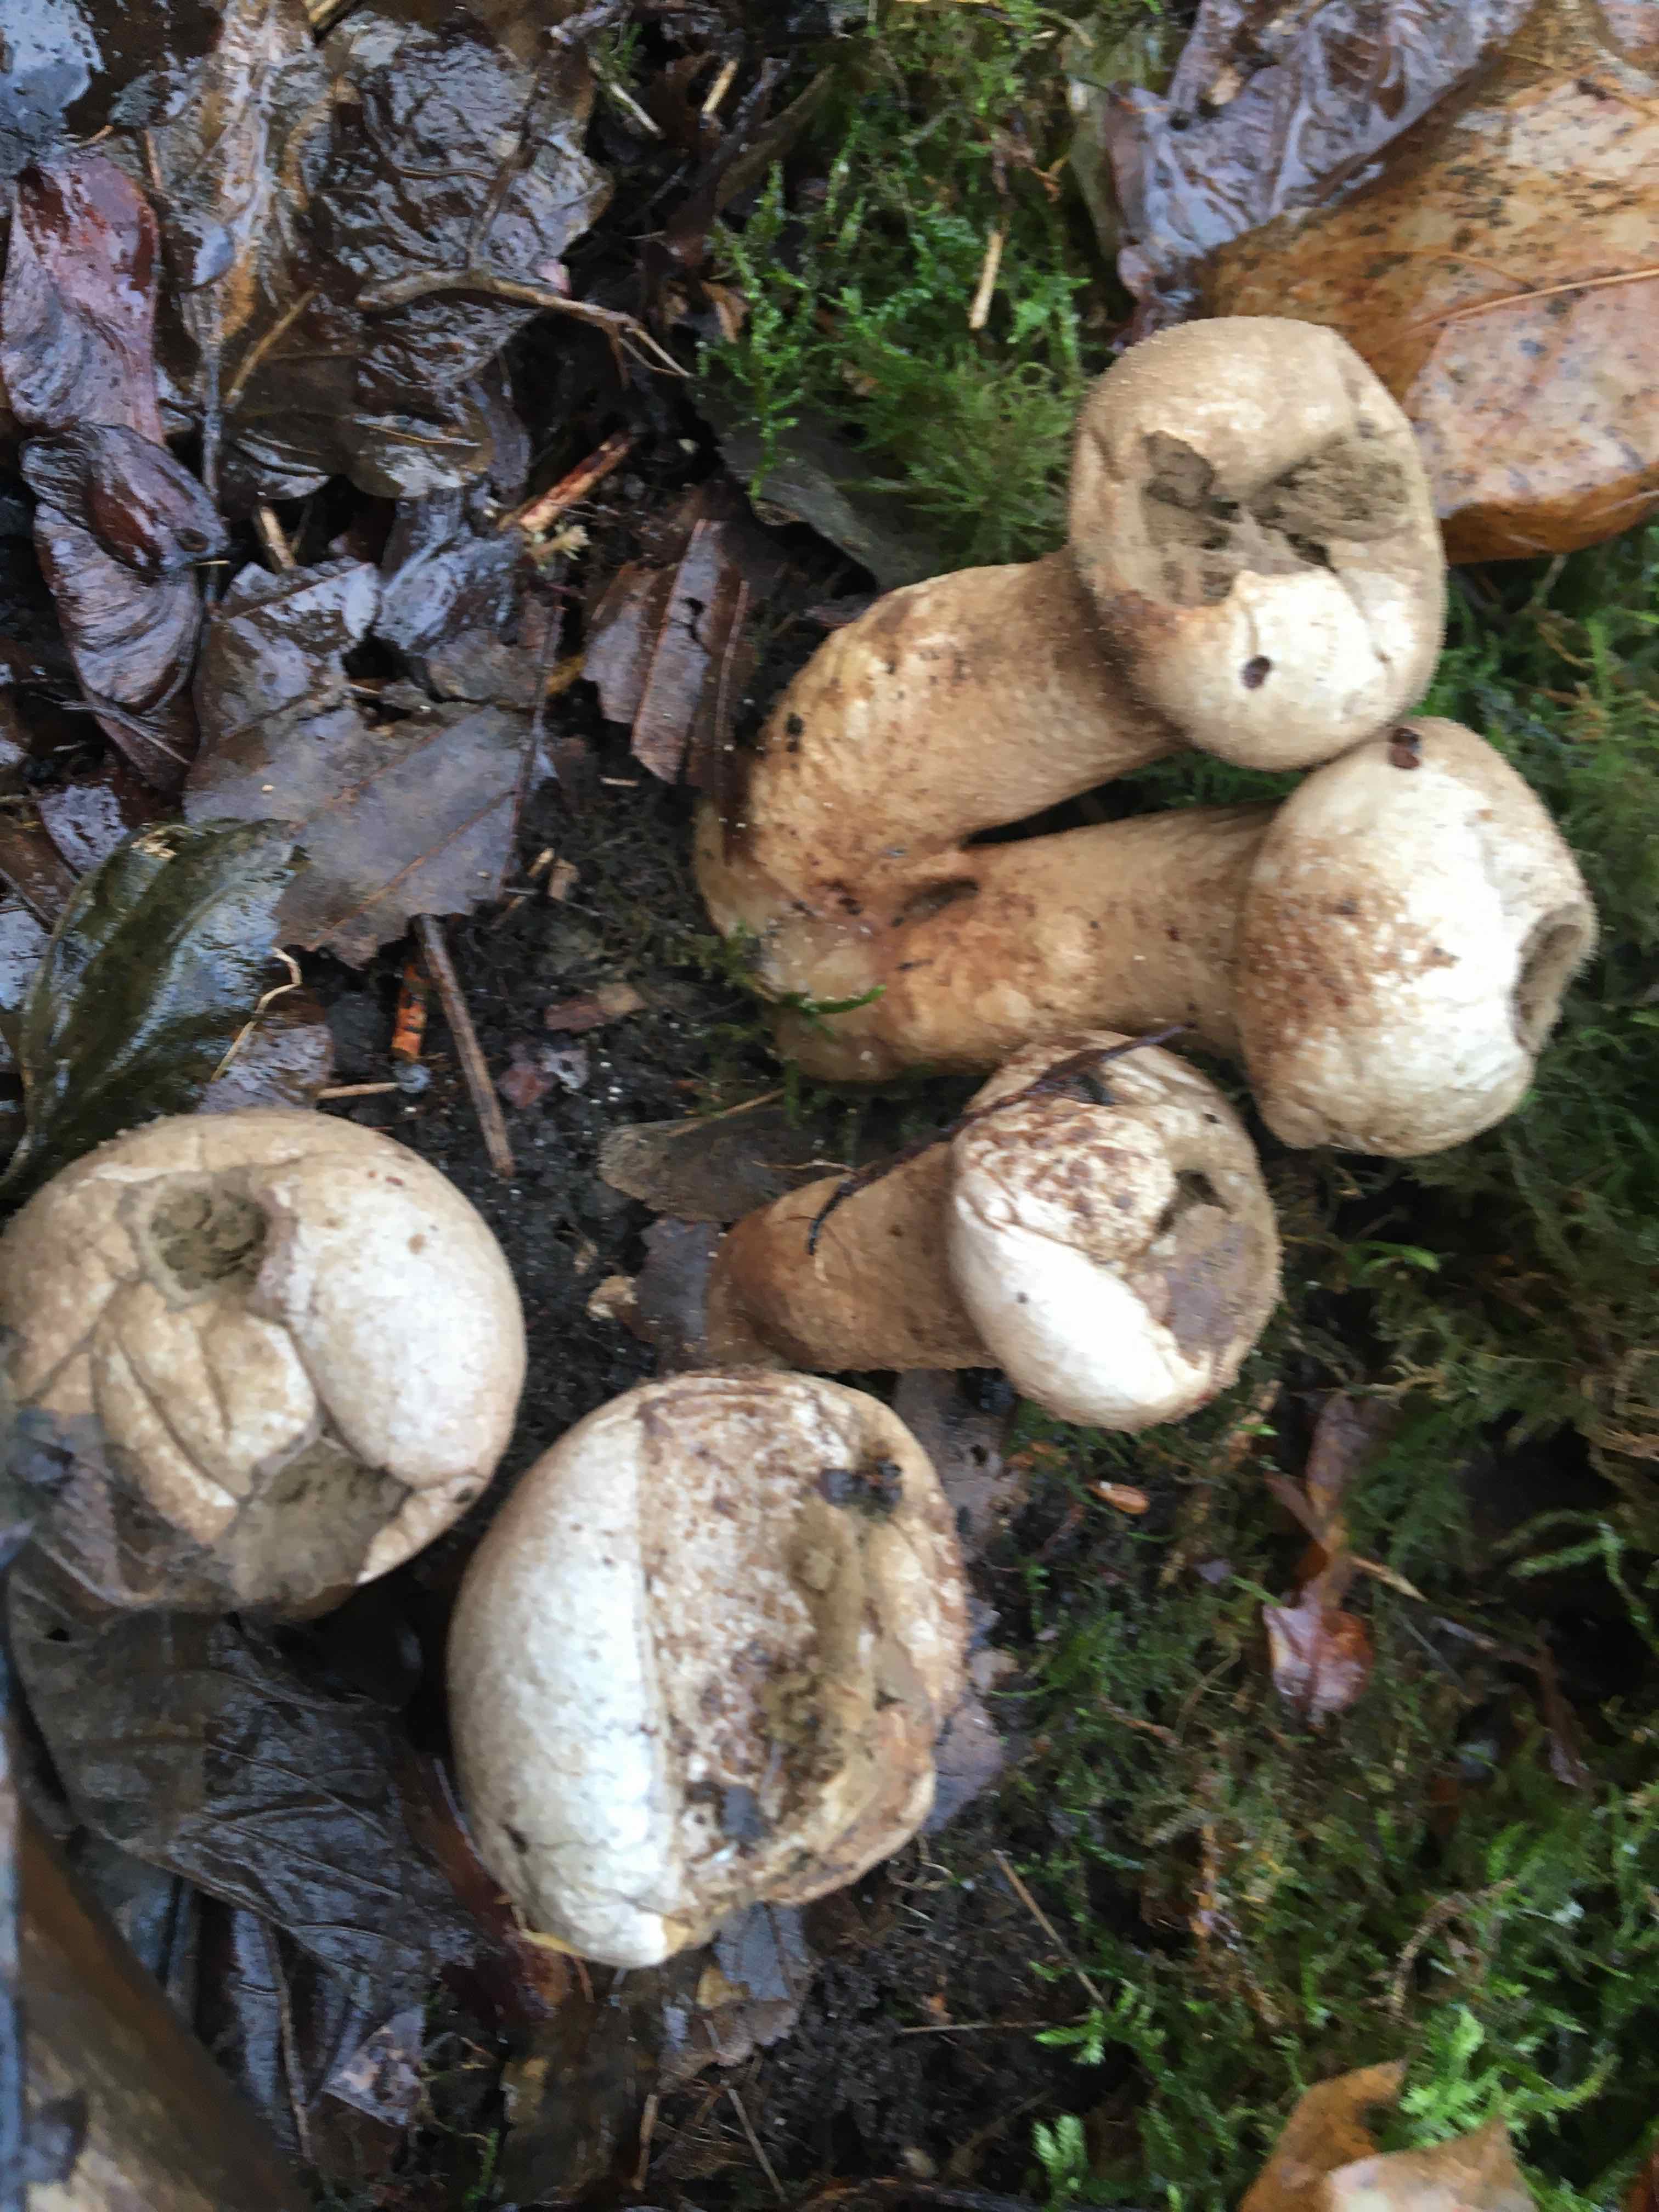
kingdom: Fungi
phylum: Basidiomycota
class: Agaricomycetes
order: Agaricales
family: Agaricaceae
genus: Lycoperdon
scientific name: Lycoperdon
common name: støvbold
